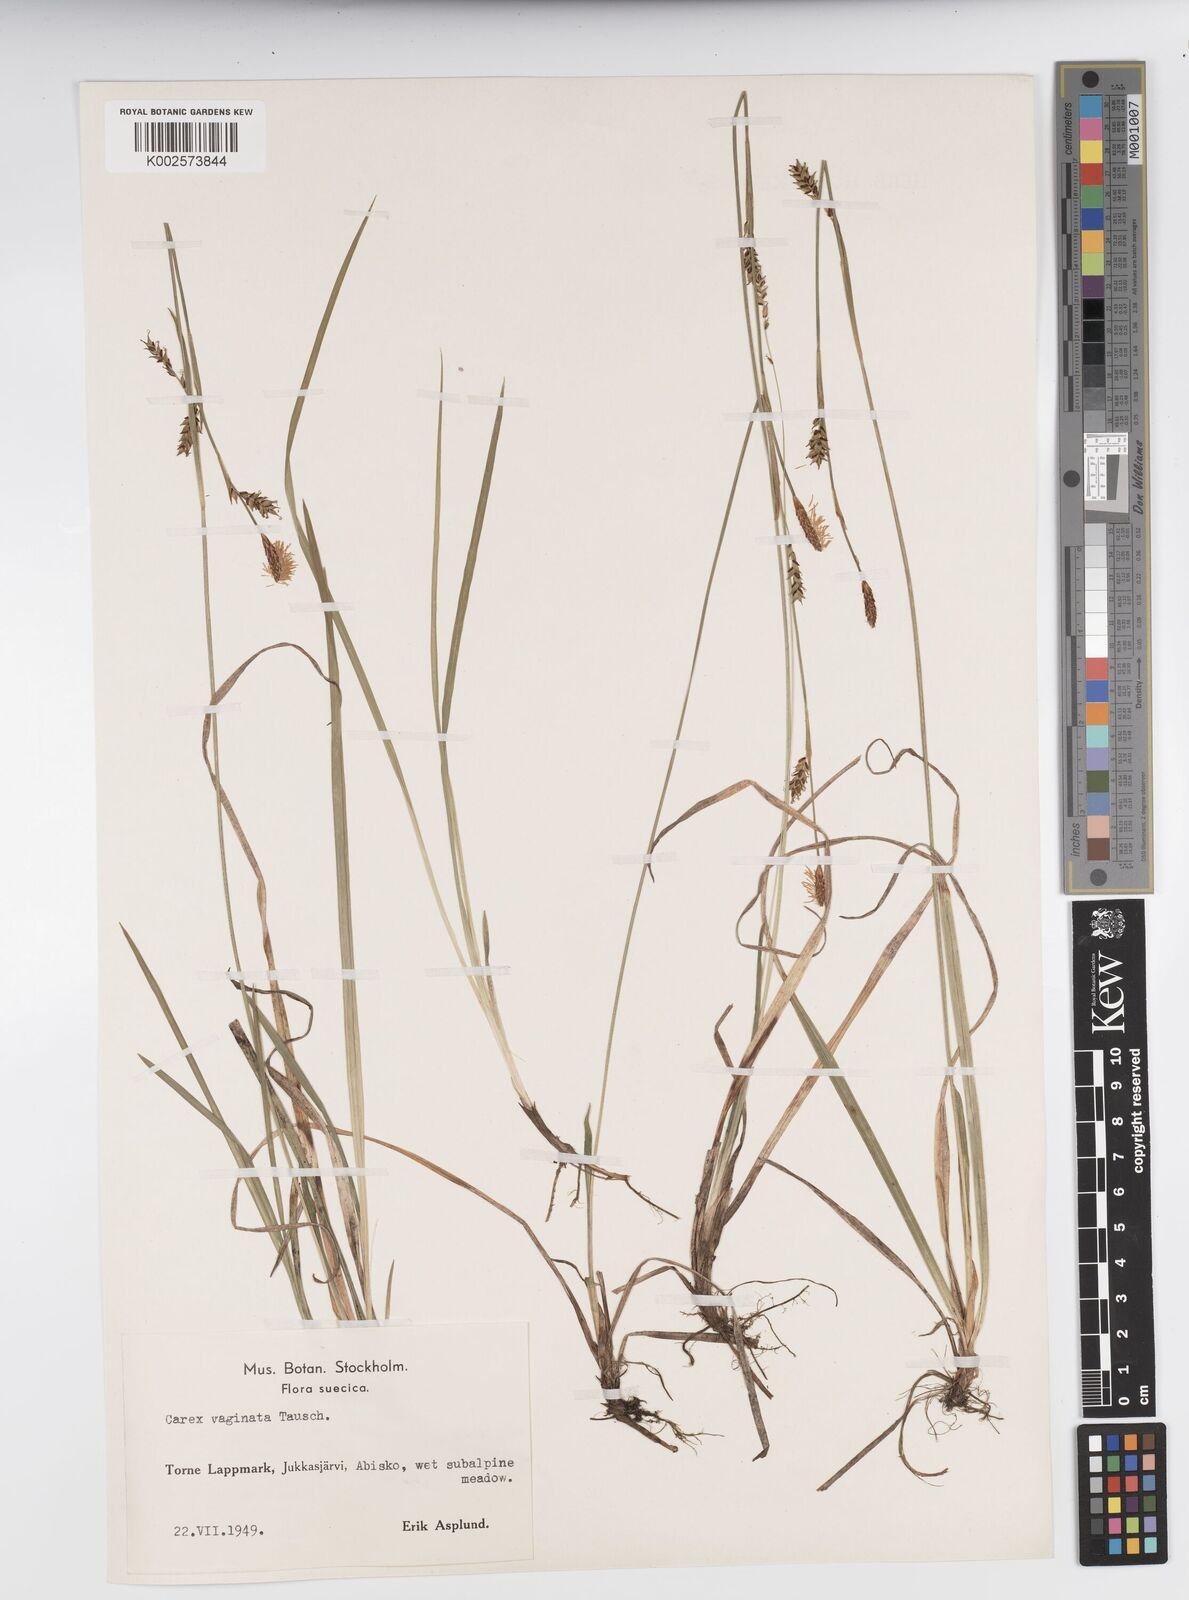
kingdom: Plantae
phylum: Tracheophyta
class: Liliopsida
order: Poales
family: Cyperaceae
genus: Carex
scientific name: Carex vaginata
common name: Sheathed sedge
